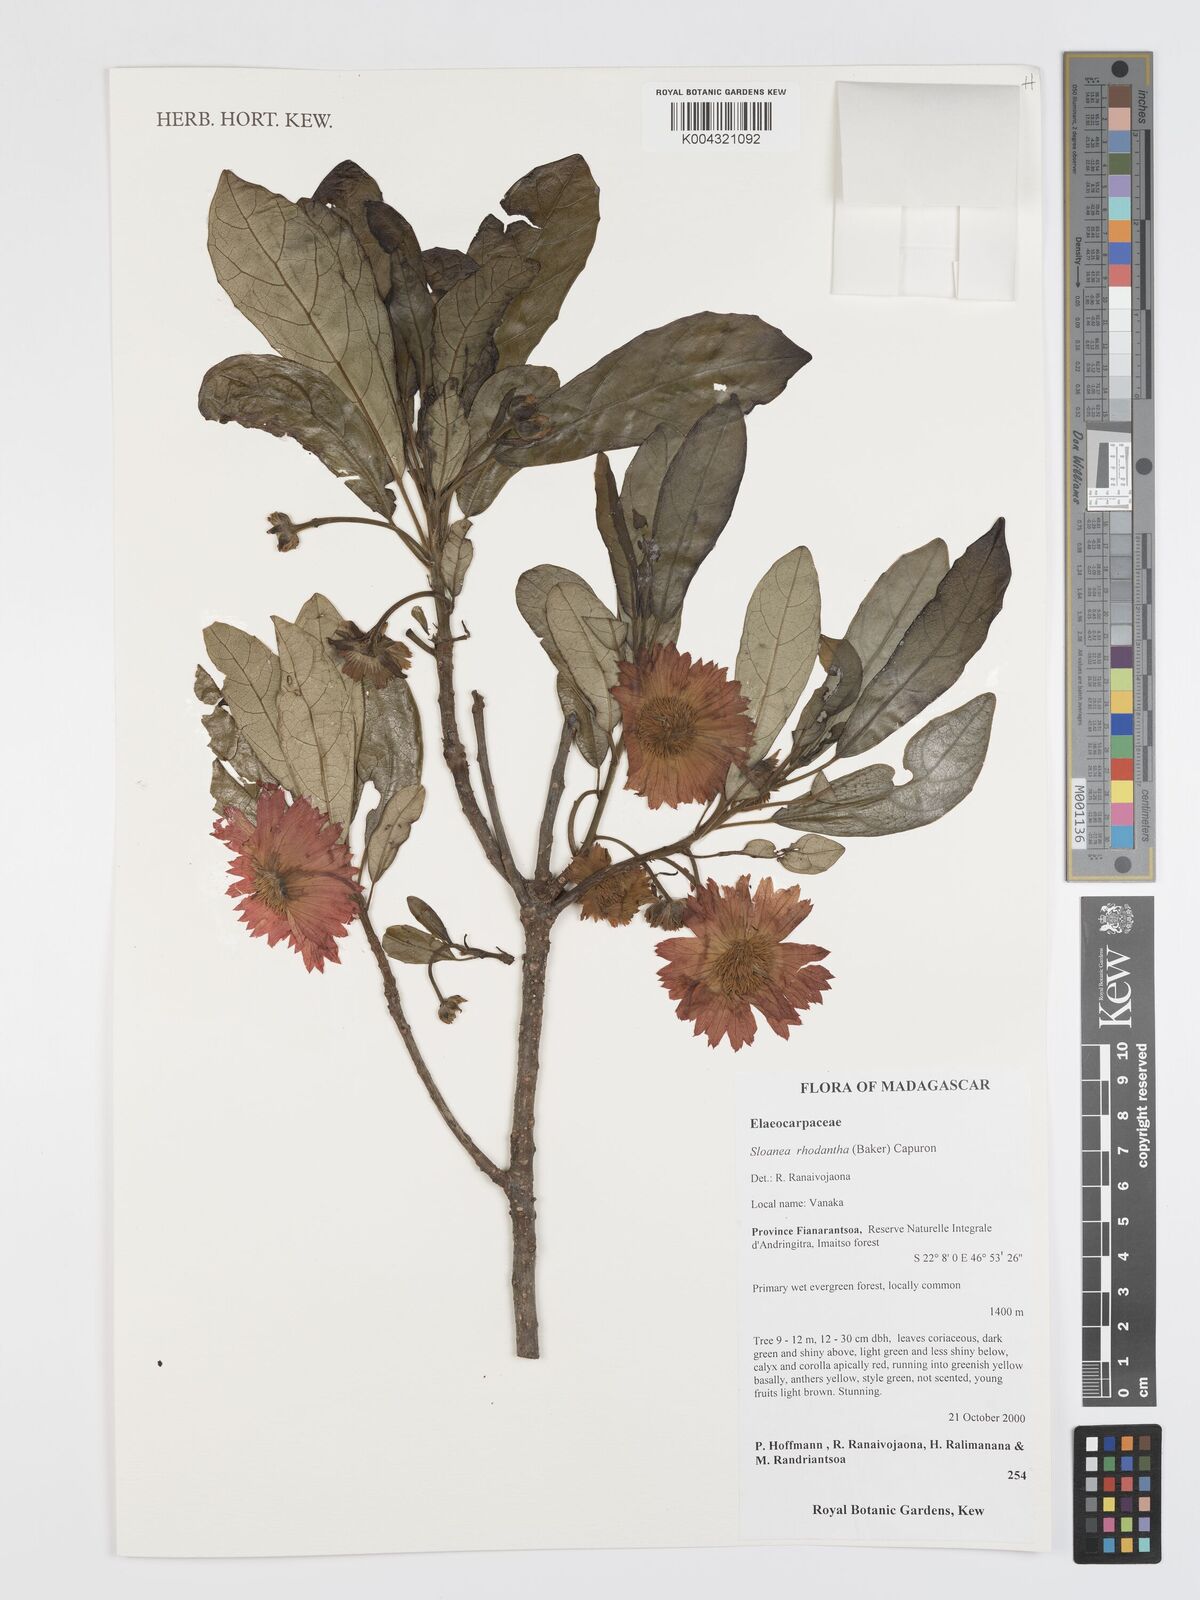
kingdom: Plantae
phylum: Tracheophyta
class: Magnoliopsida
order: Oxalidales
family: Elaeocarpaceae
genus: Sloanea
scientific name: Sloanea rhodantha
